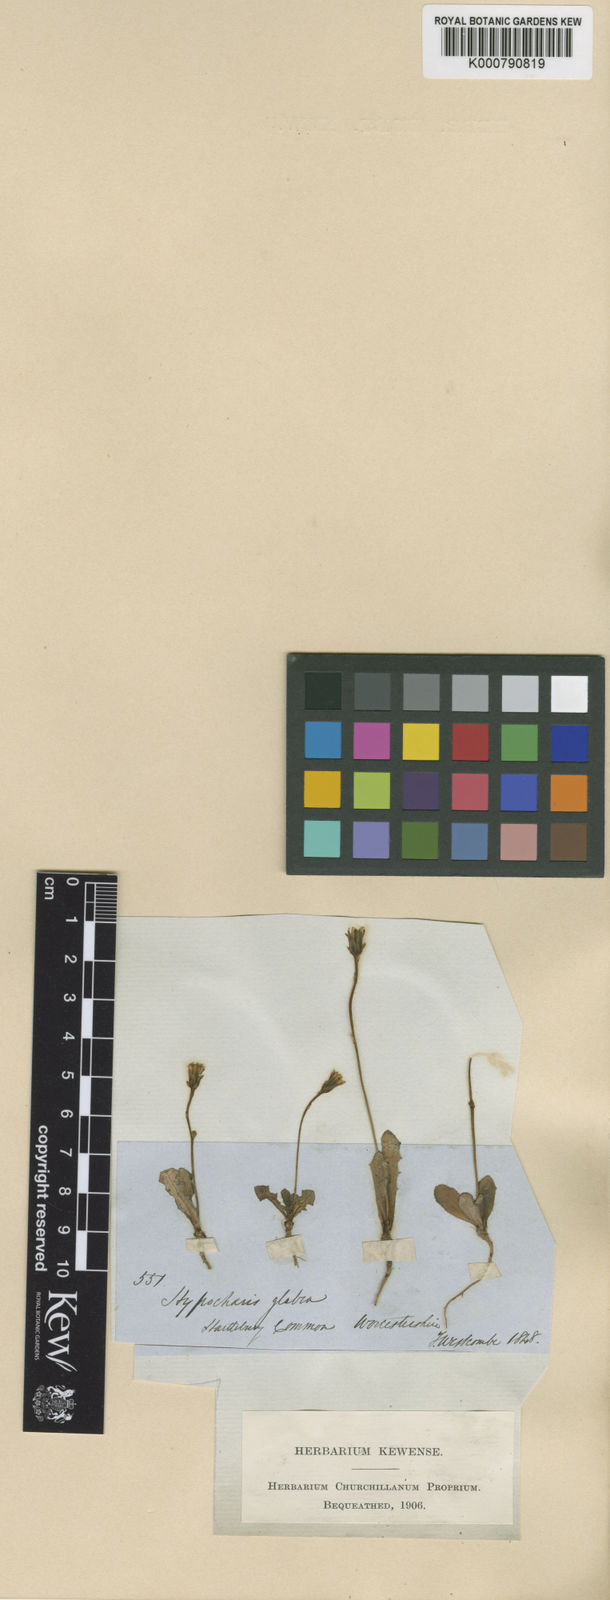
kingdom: Plantae
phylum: Tracheophyta
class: Magnoliopsida
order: Asterales
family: Asteraceae
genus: Hypochaeris
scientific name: Hypochaeris glabra
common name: Smooth catsear
